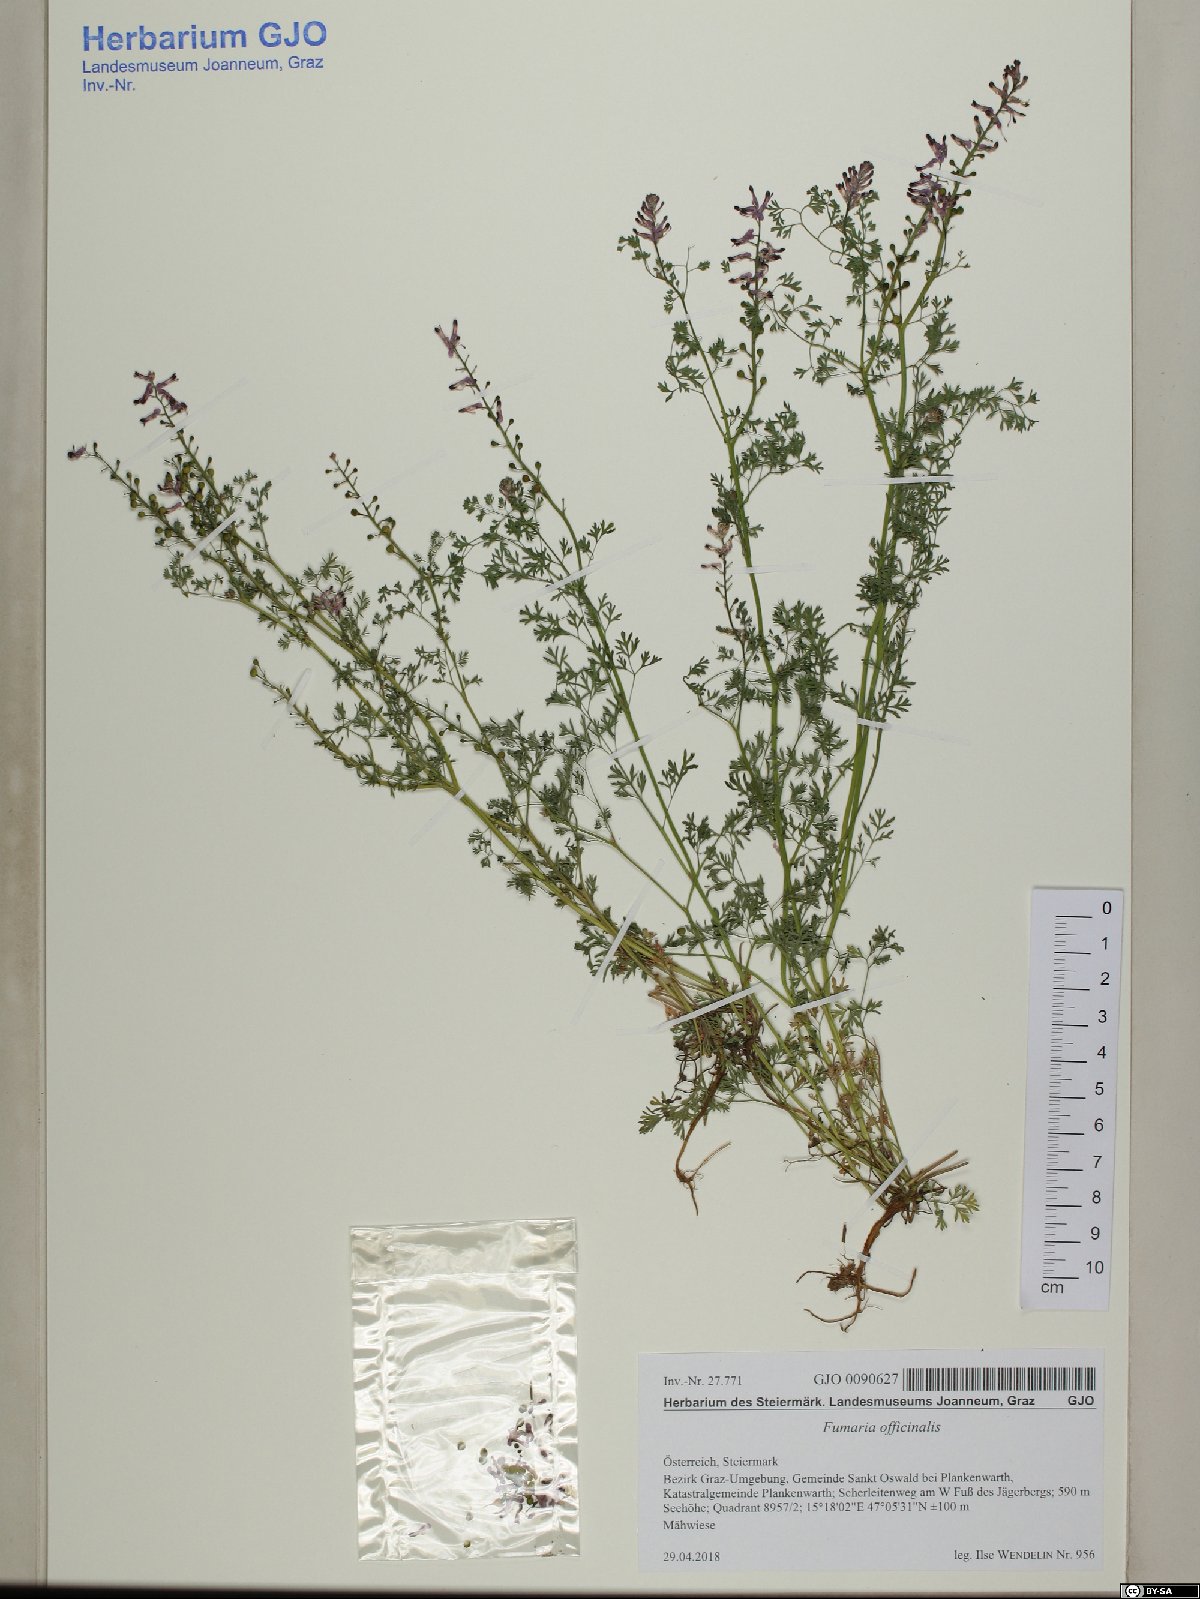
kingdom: Plantae
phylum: Tracheophyta
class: Magnoliopsida
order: Ranunculales
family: Papaveraceae
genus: Fumaria
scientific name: Fumaria officinalis
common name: Common fumitory
